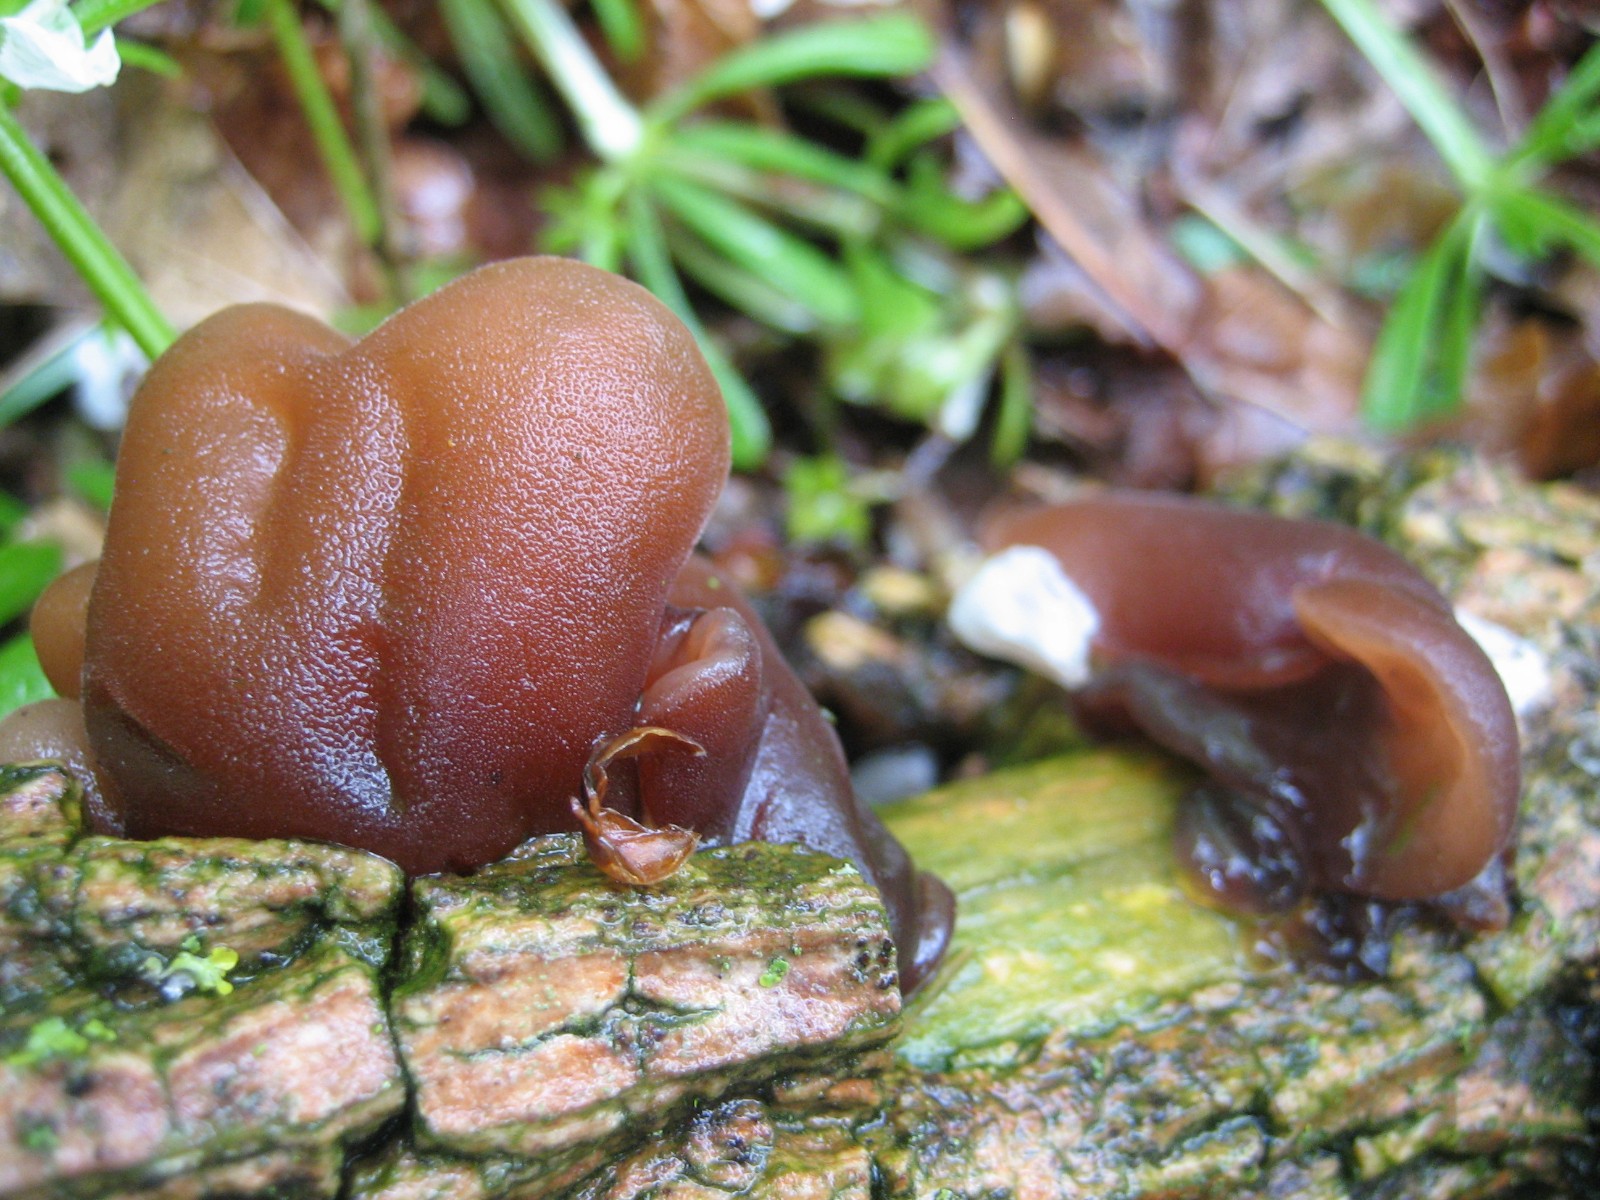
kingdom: Fungi
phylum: Basidiomycota
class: Agaricomycetes
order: Auriculariales
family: Auriculariaceae
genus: Auricularia
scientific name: Auricularia auricula-judae
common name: almindelig judasøre
